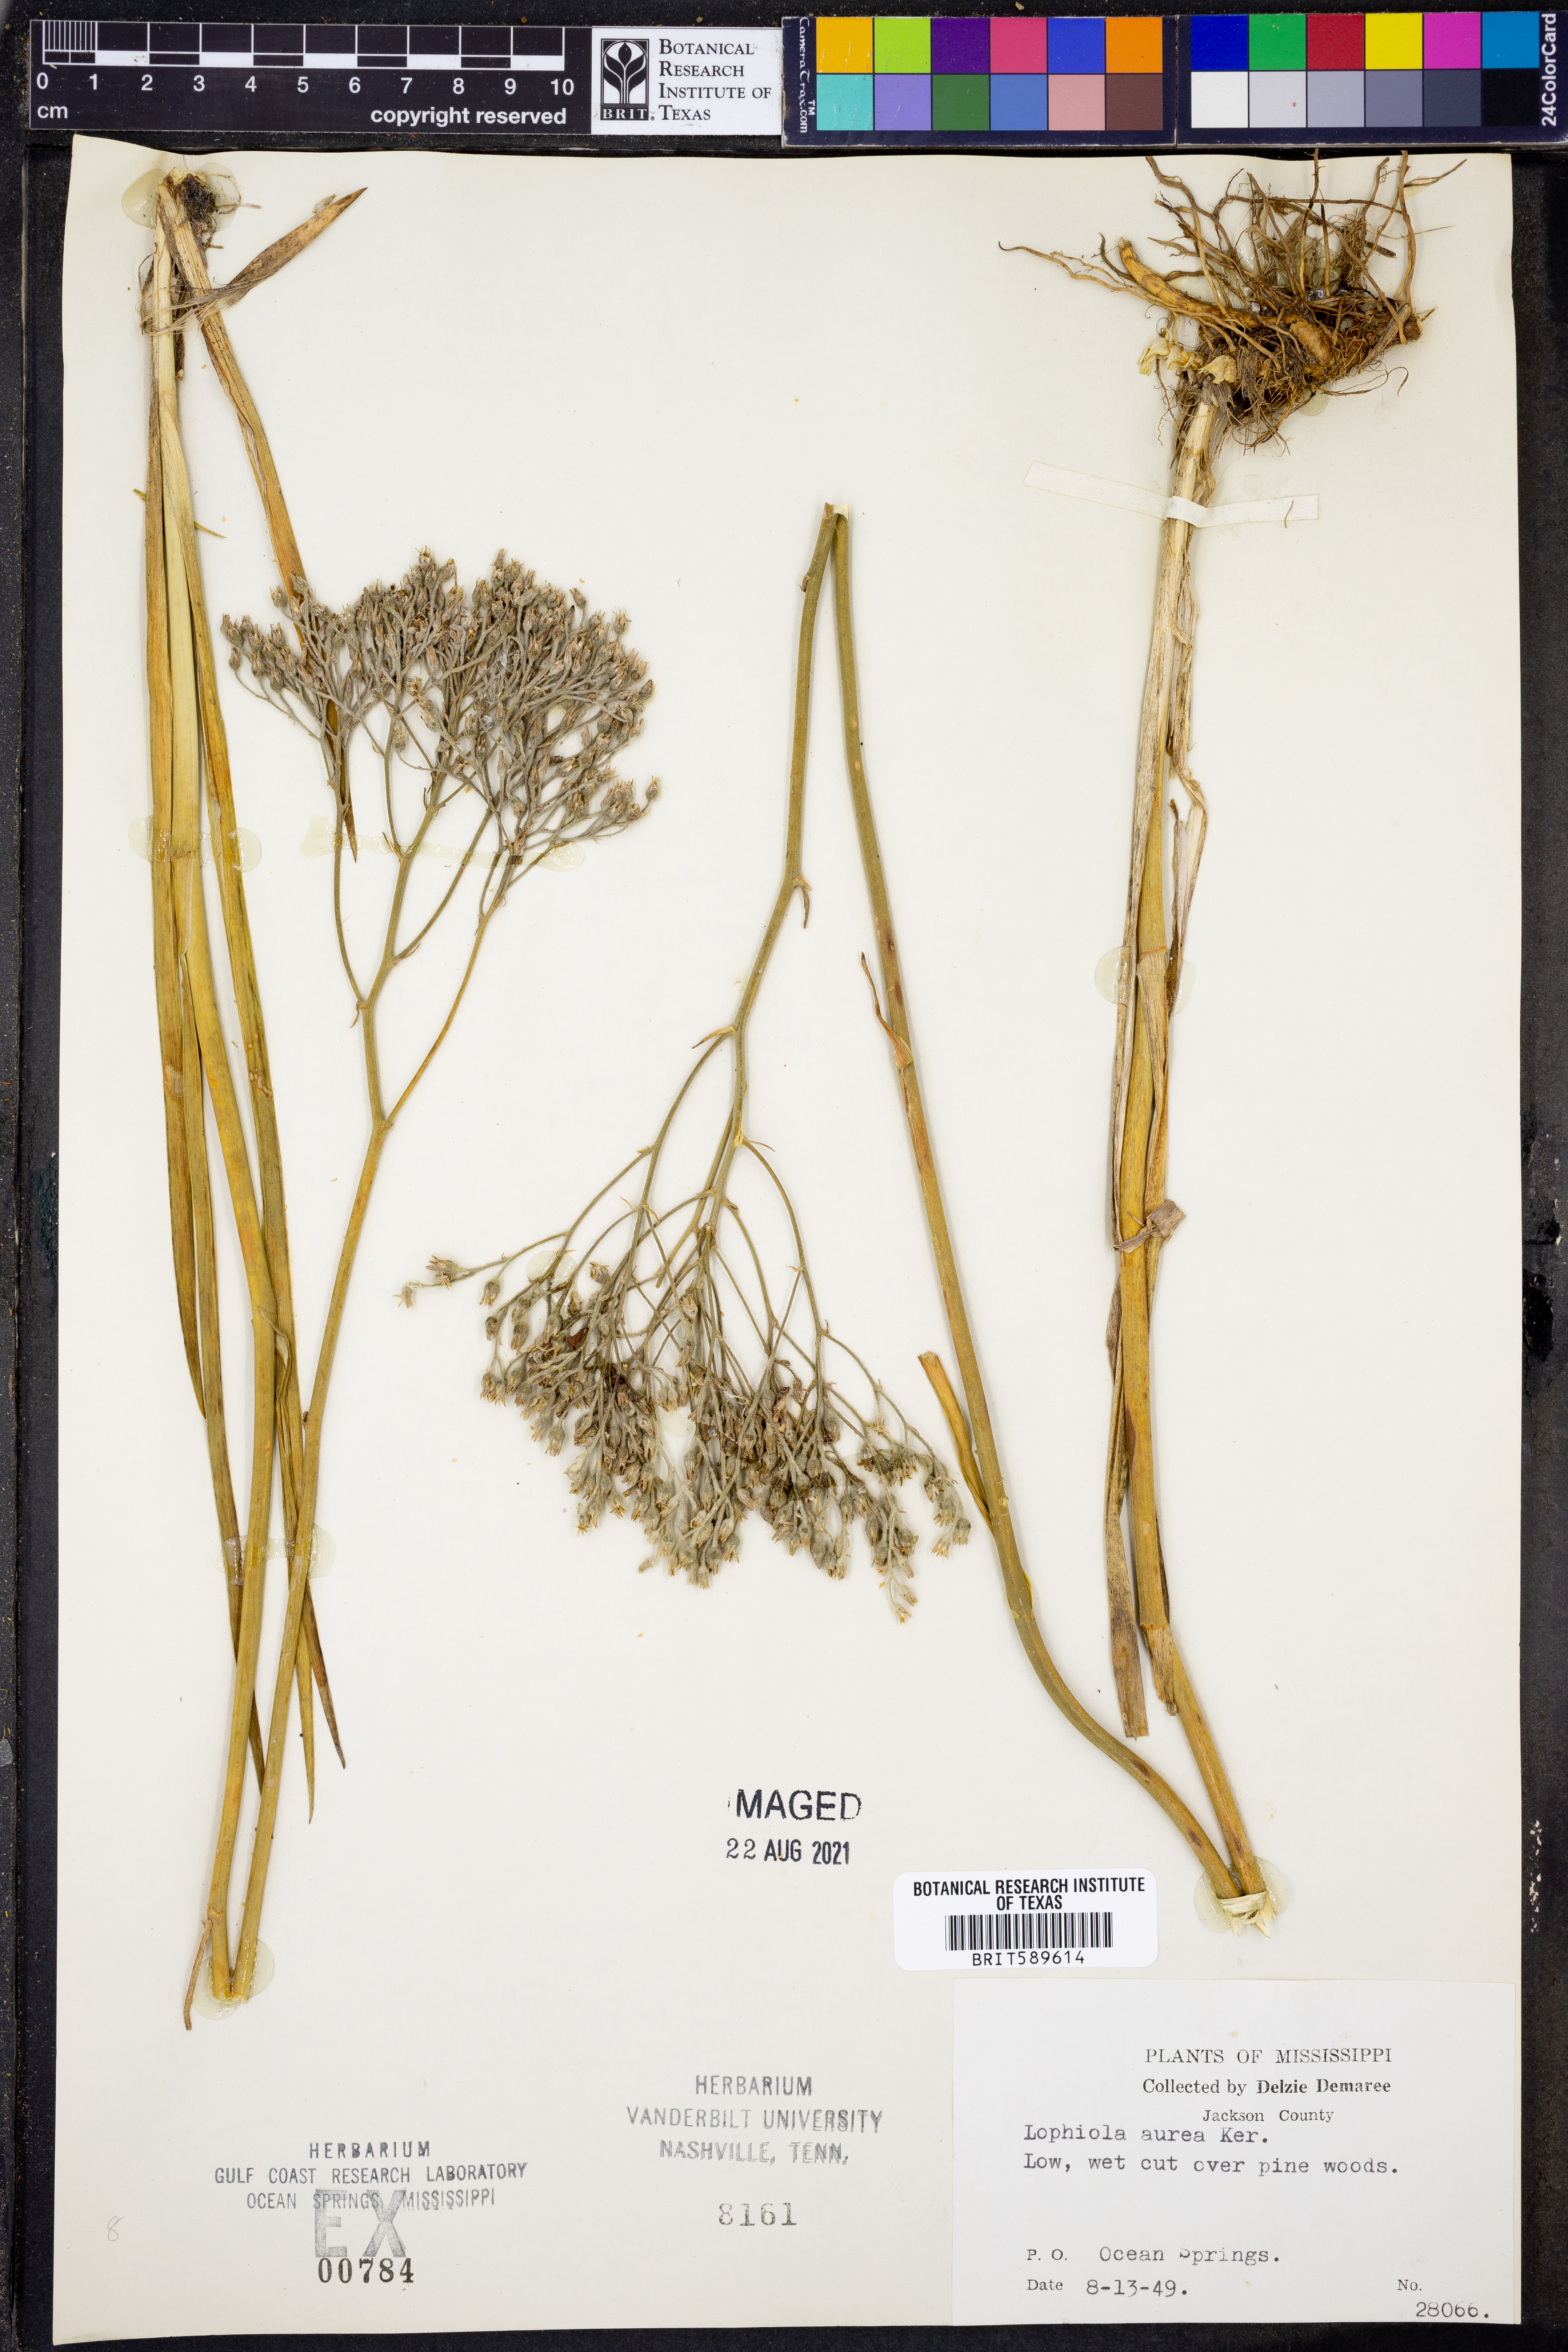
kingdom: Plantae
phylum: Tracheophyta
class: Liliopsida
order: Dioscoreales
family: Nartheciaceae
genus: Lophiola
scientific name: Lophiola aurea
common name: Golden-crest
